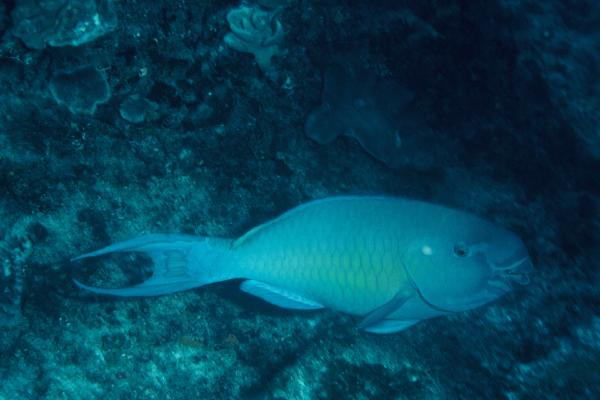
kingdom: Animalia
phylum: Chordata
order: Perciformes
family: Scaridae
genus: Scarus
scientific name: Scarus rubroviolaceus
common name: Ember parrotfish
